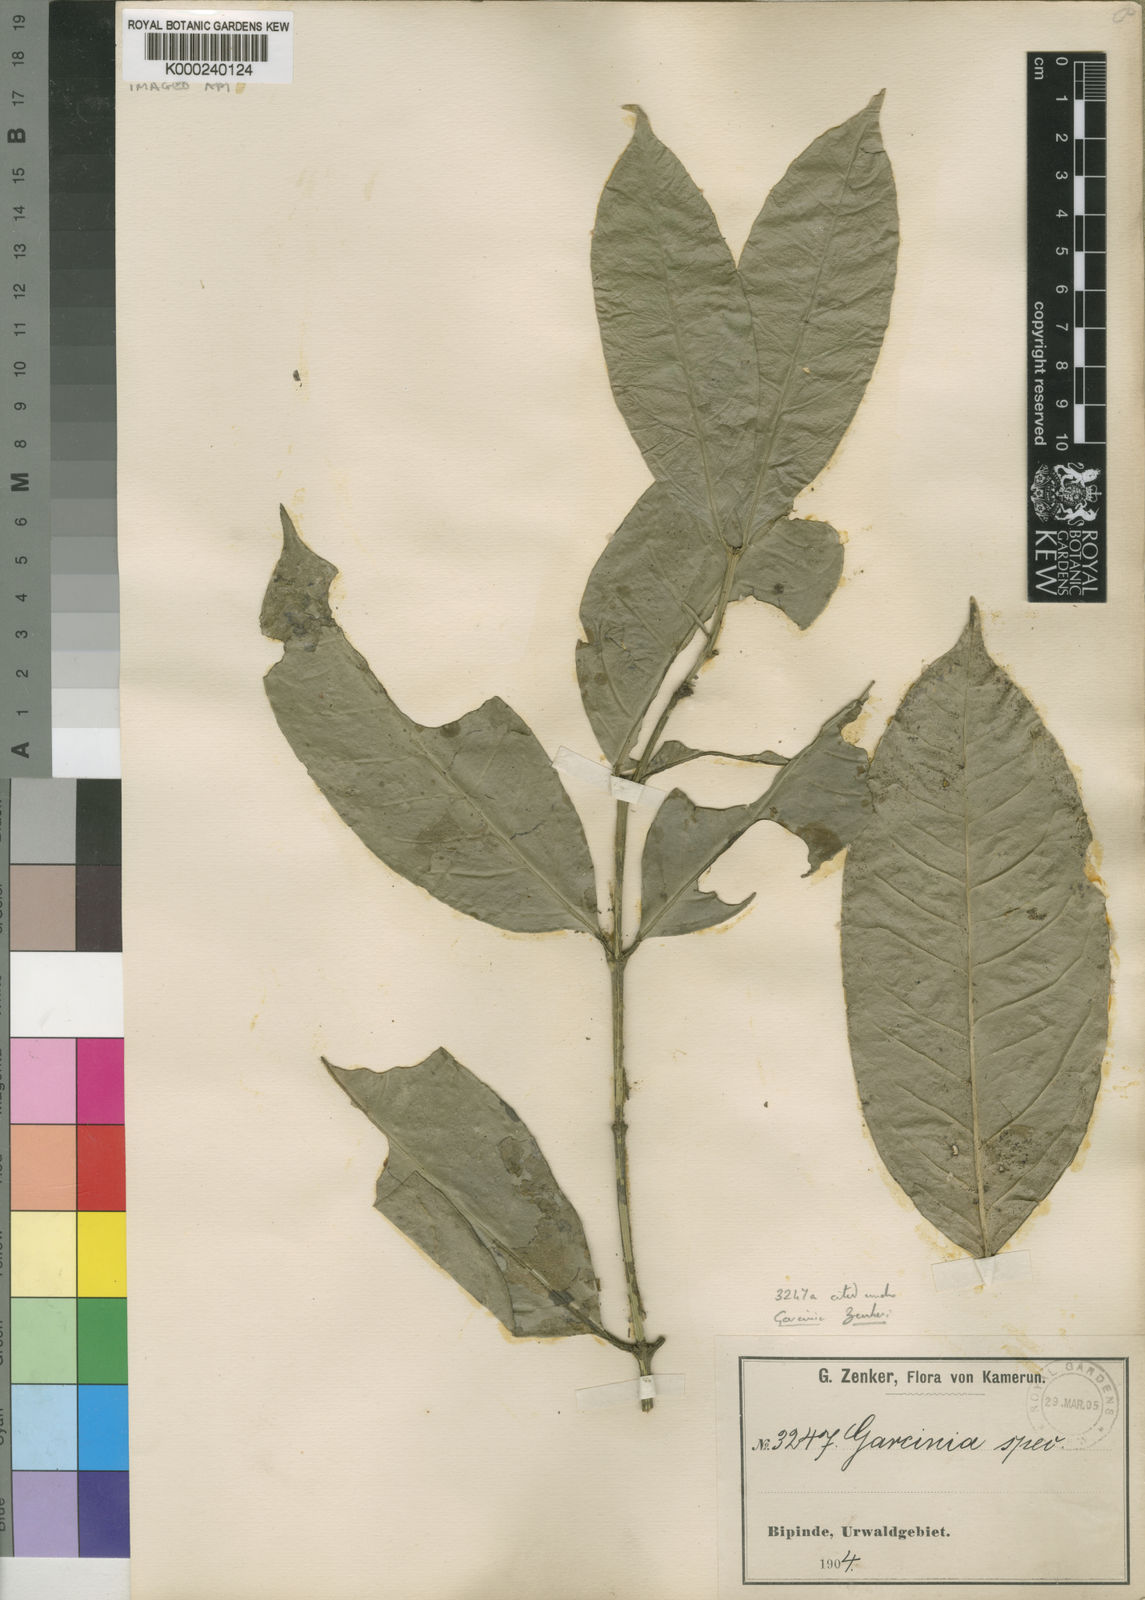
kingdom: Plantae
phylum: Tracheophyta
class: Magnoliopsida
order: Malpighiales
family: Clusiaceae
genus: Garcinia
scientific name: Garcinia densivenia
